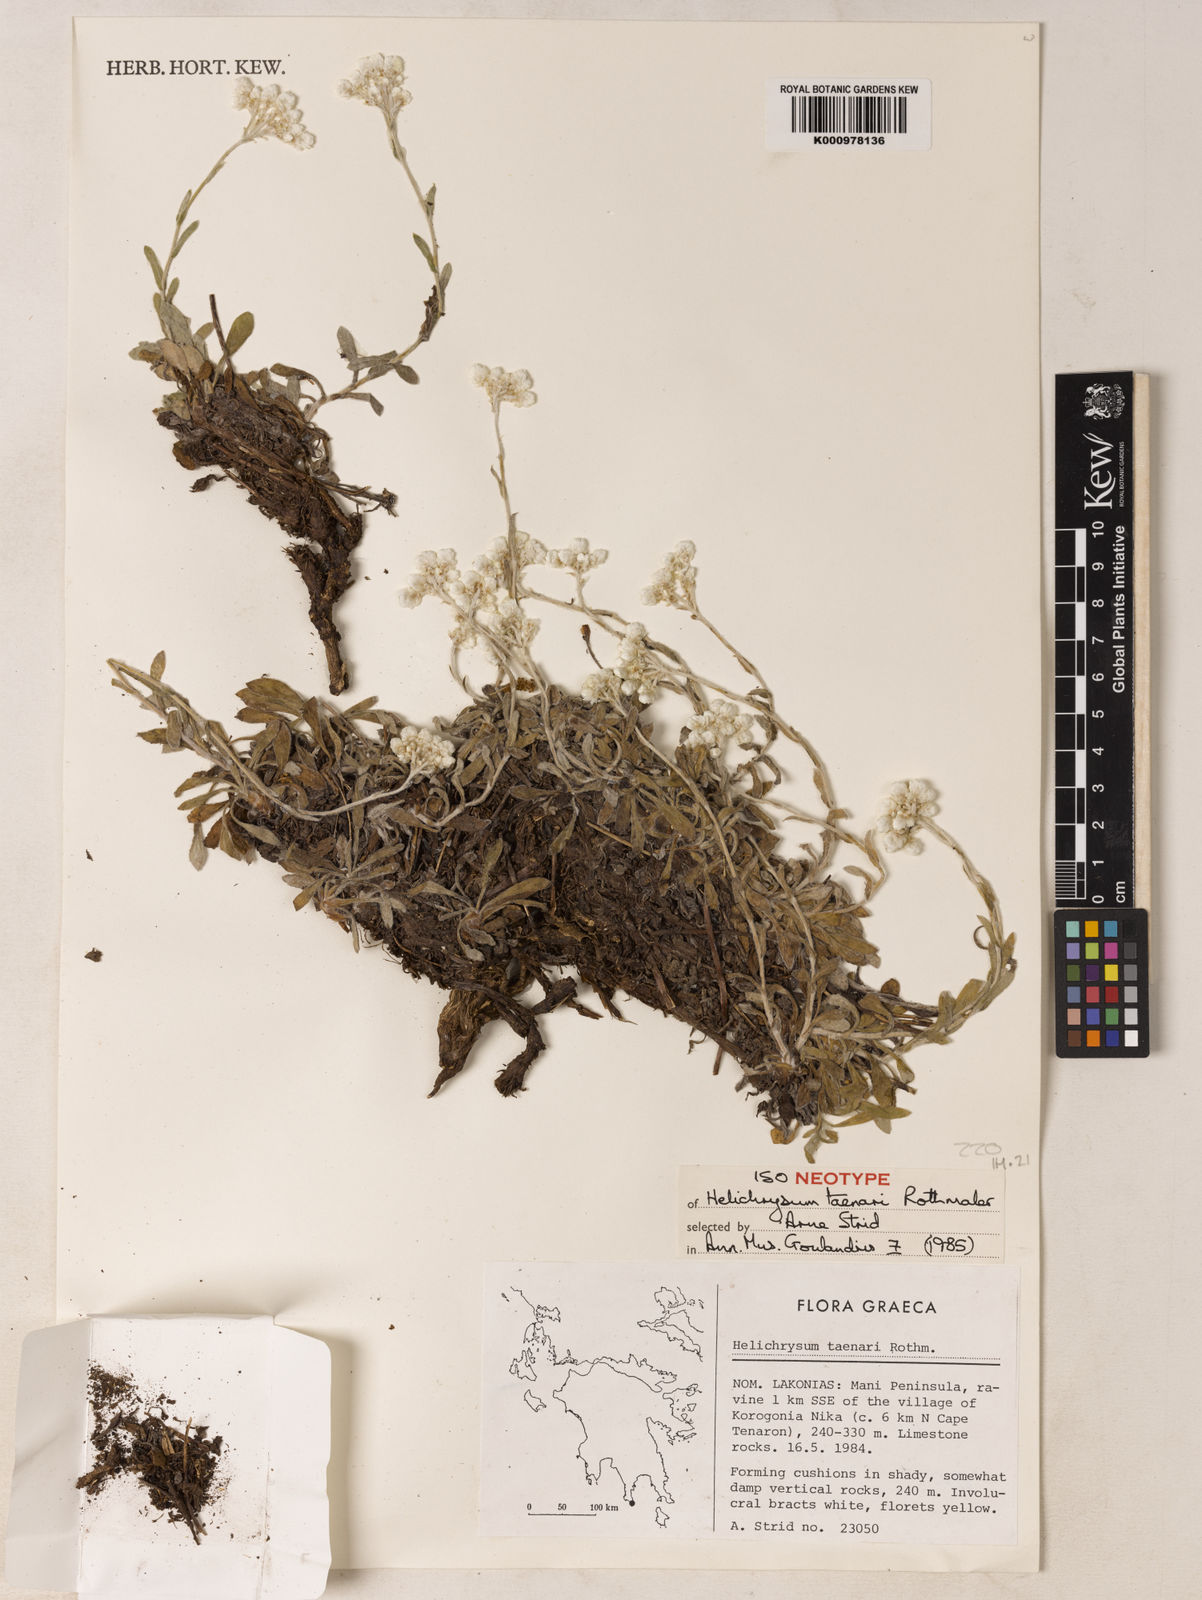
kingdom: Plantae
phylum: Tracheophyta
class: Magnoliopsida
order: Asterales
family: Asteraceae
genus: Helichrysum
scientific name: Helichrysum amorginum
